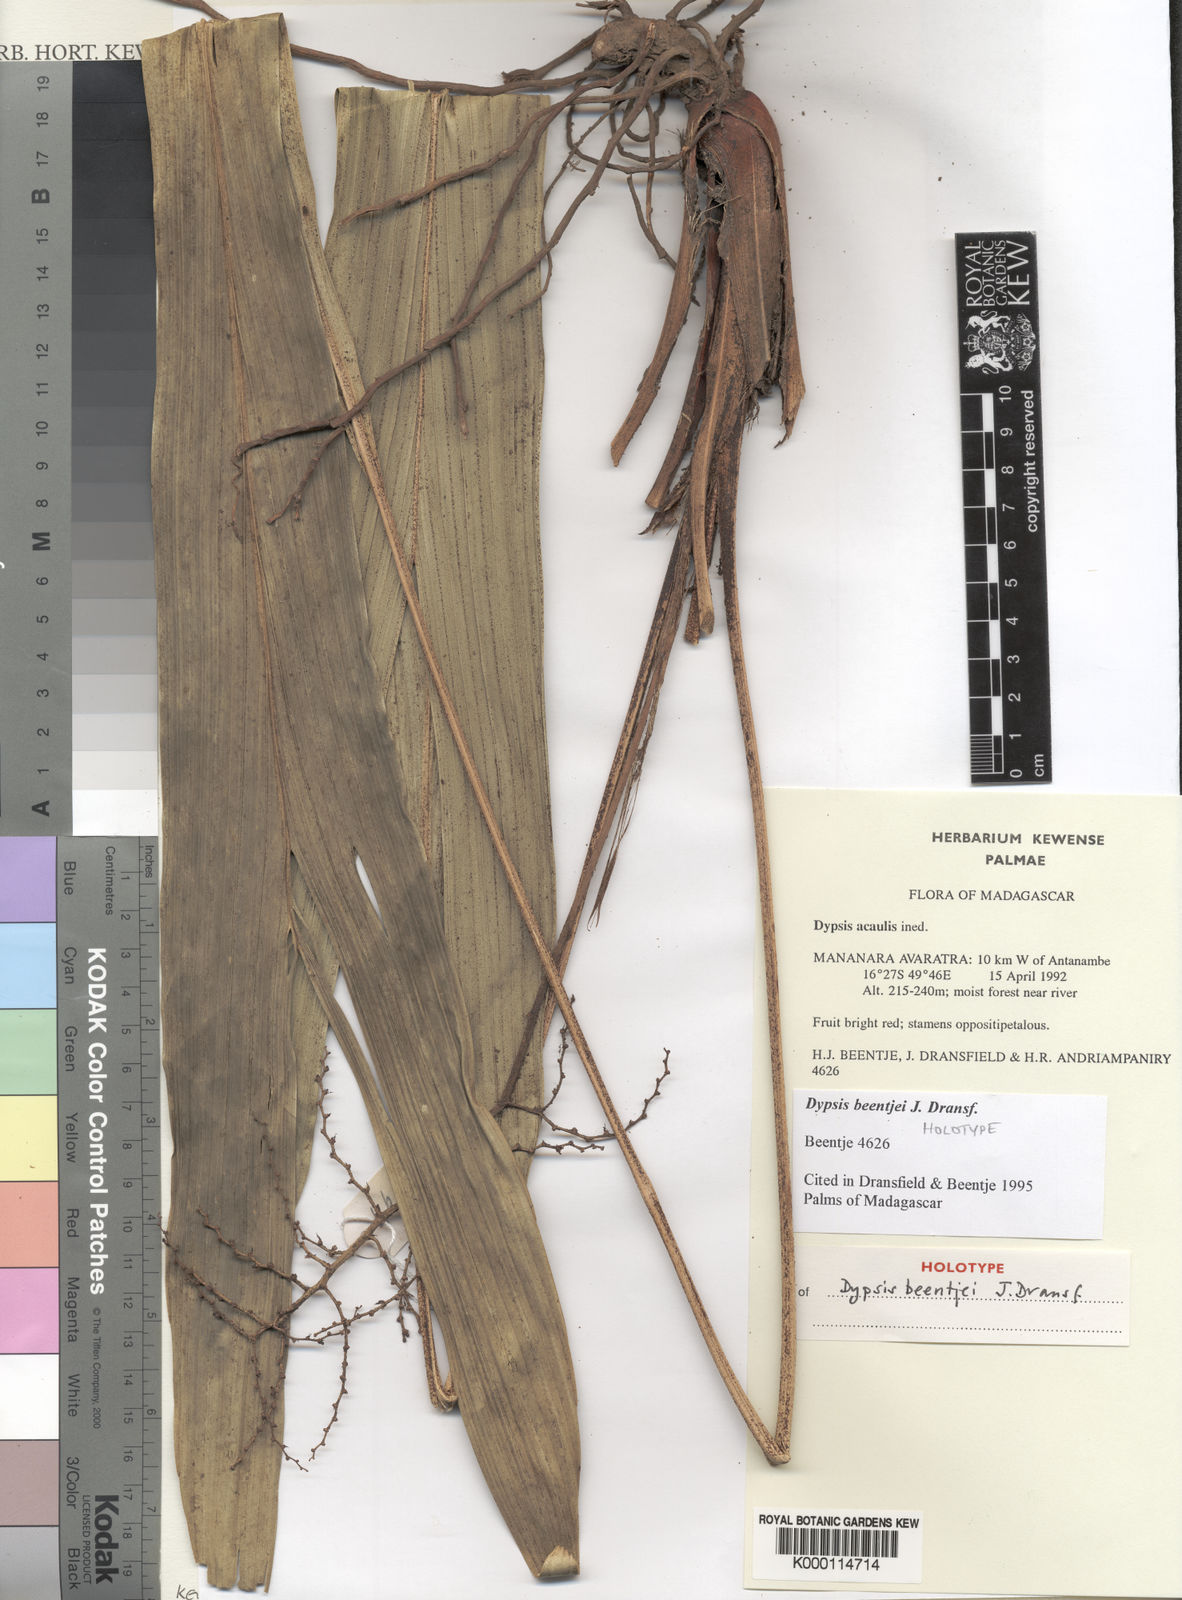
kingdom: Plantae
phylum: Tracheophyta
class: Liliopsida
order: Arecales
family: Arecaceae
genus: Dypsis
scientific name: Dypsis beentjei
